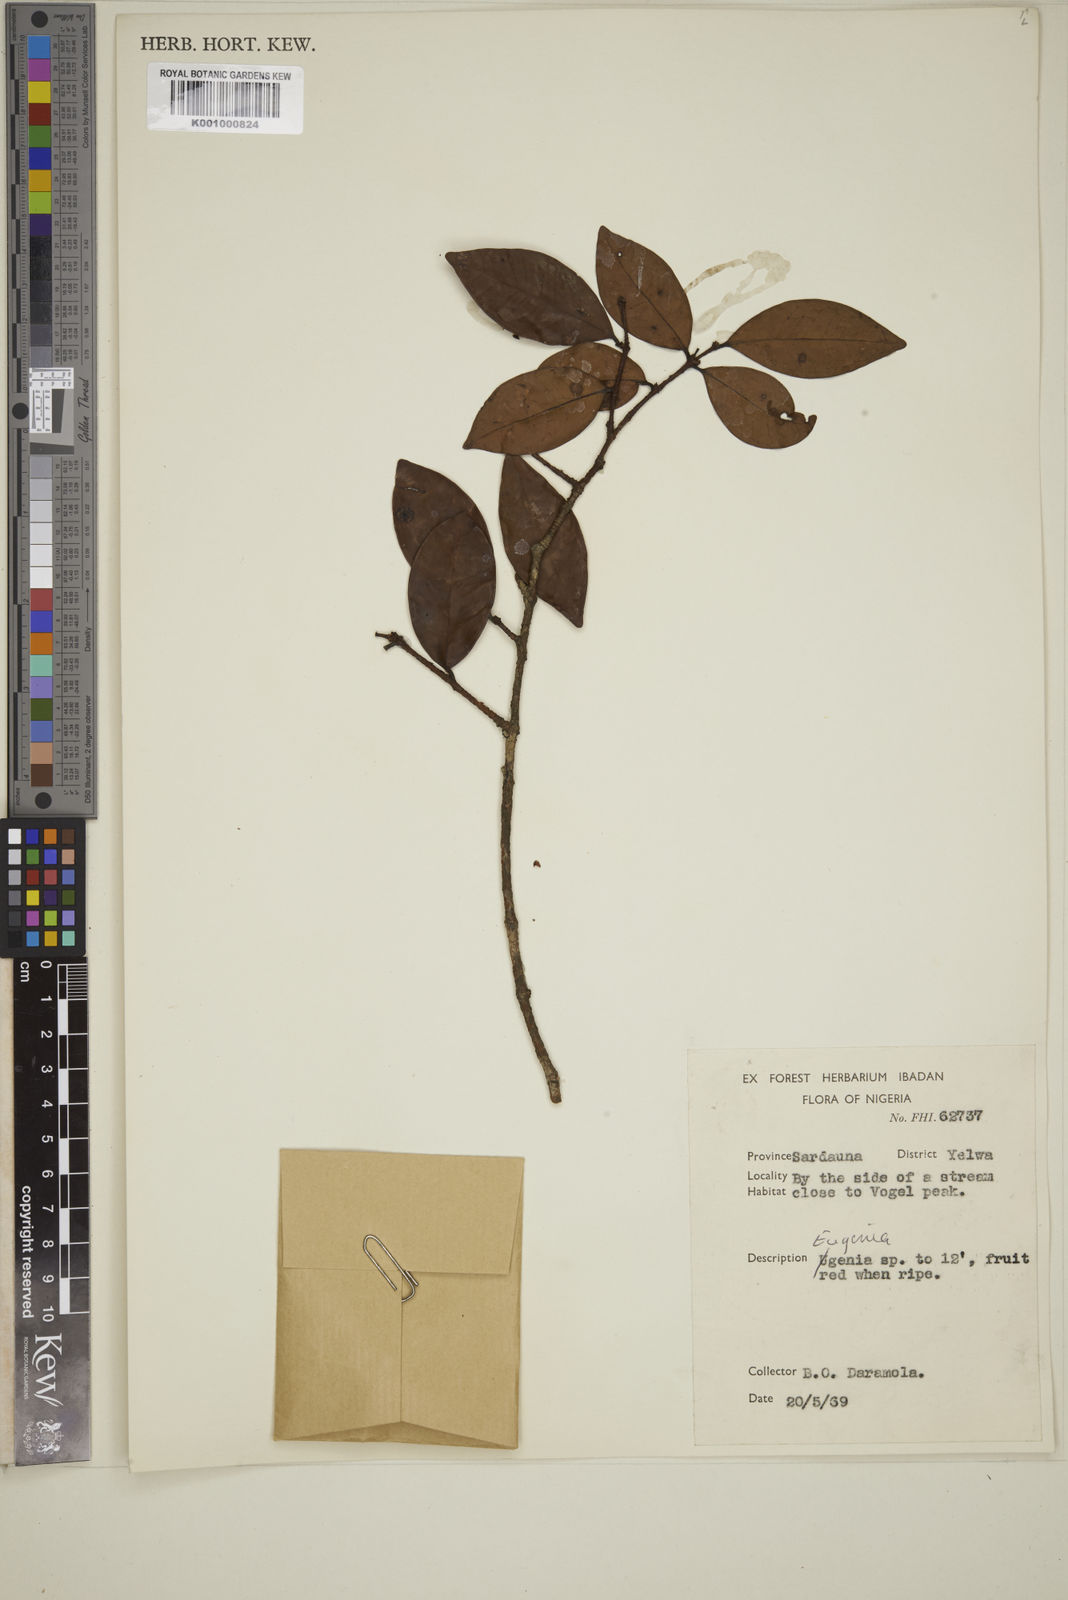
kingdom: Plantae
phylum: Tracheophyta
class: Magnoliopsida
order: Myrtales
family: Myrtaceae
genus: Eugenia
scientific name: Eugenia
